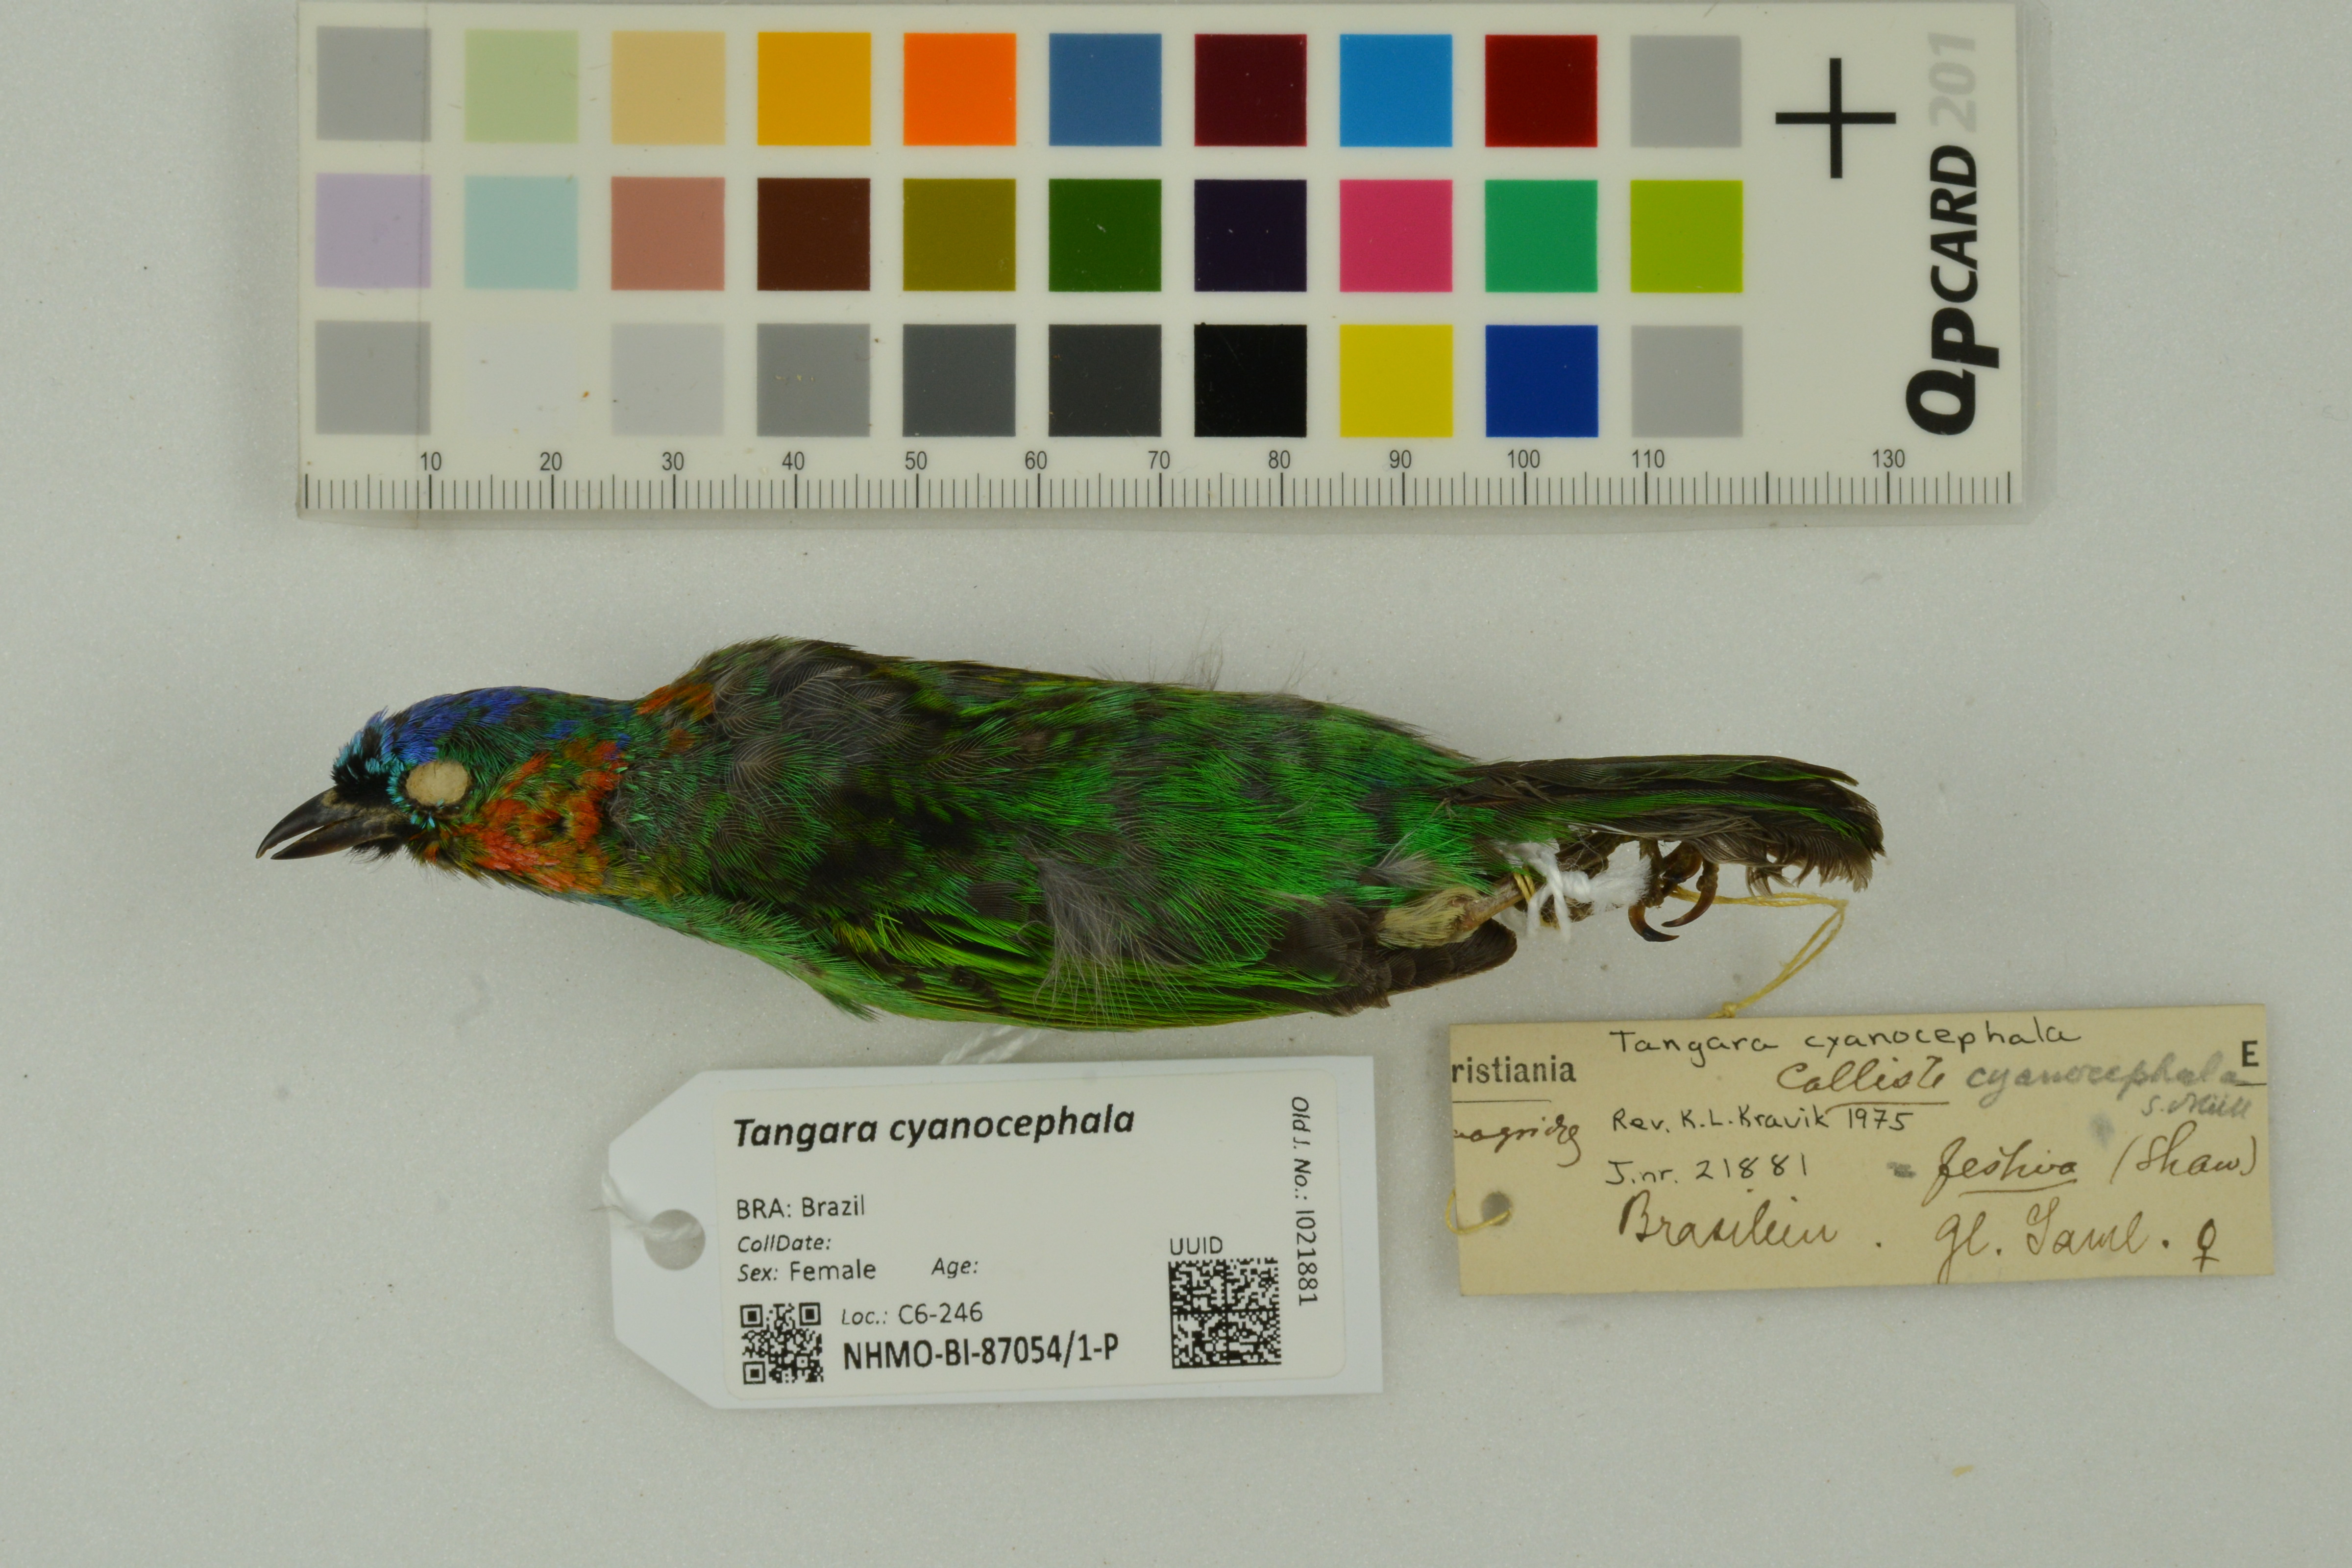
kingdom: Animalia
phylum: Chordata
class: Aves
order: Passeriformes
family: Thraupidae
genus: Tangara
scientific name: Tangara cyanocephala
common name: Red-necked tanager
